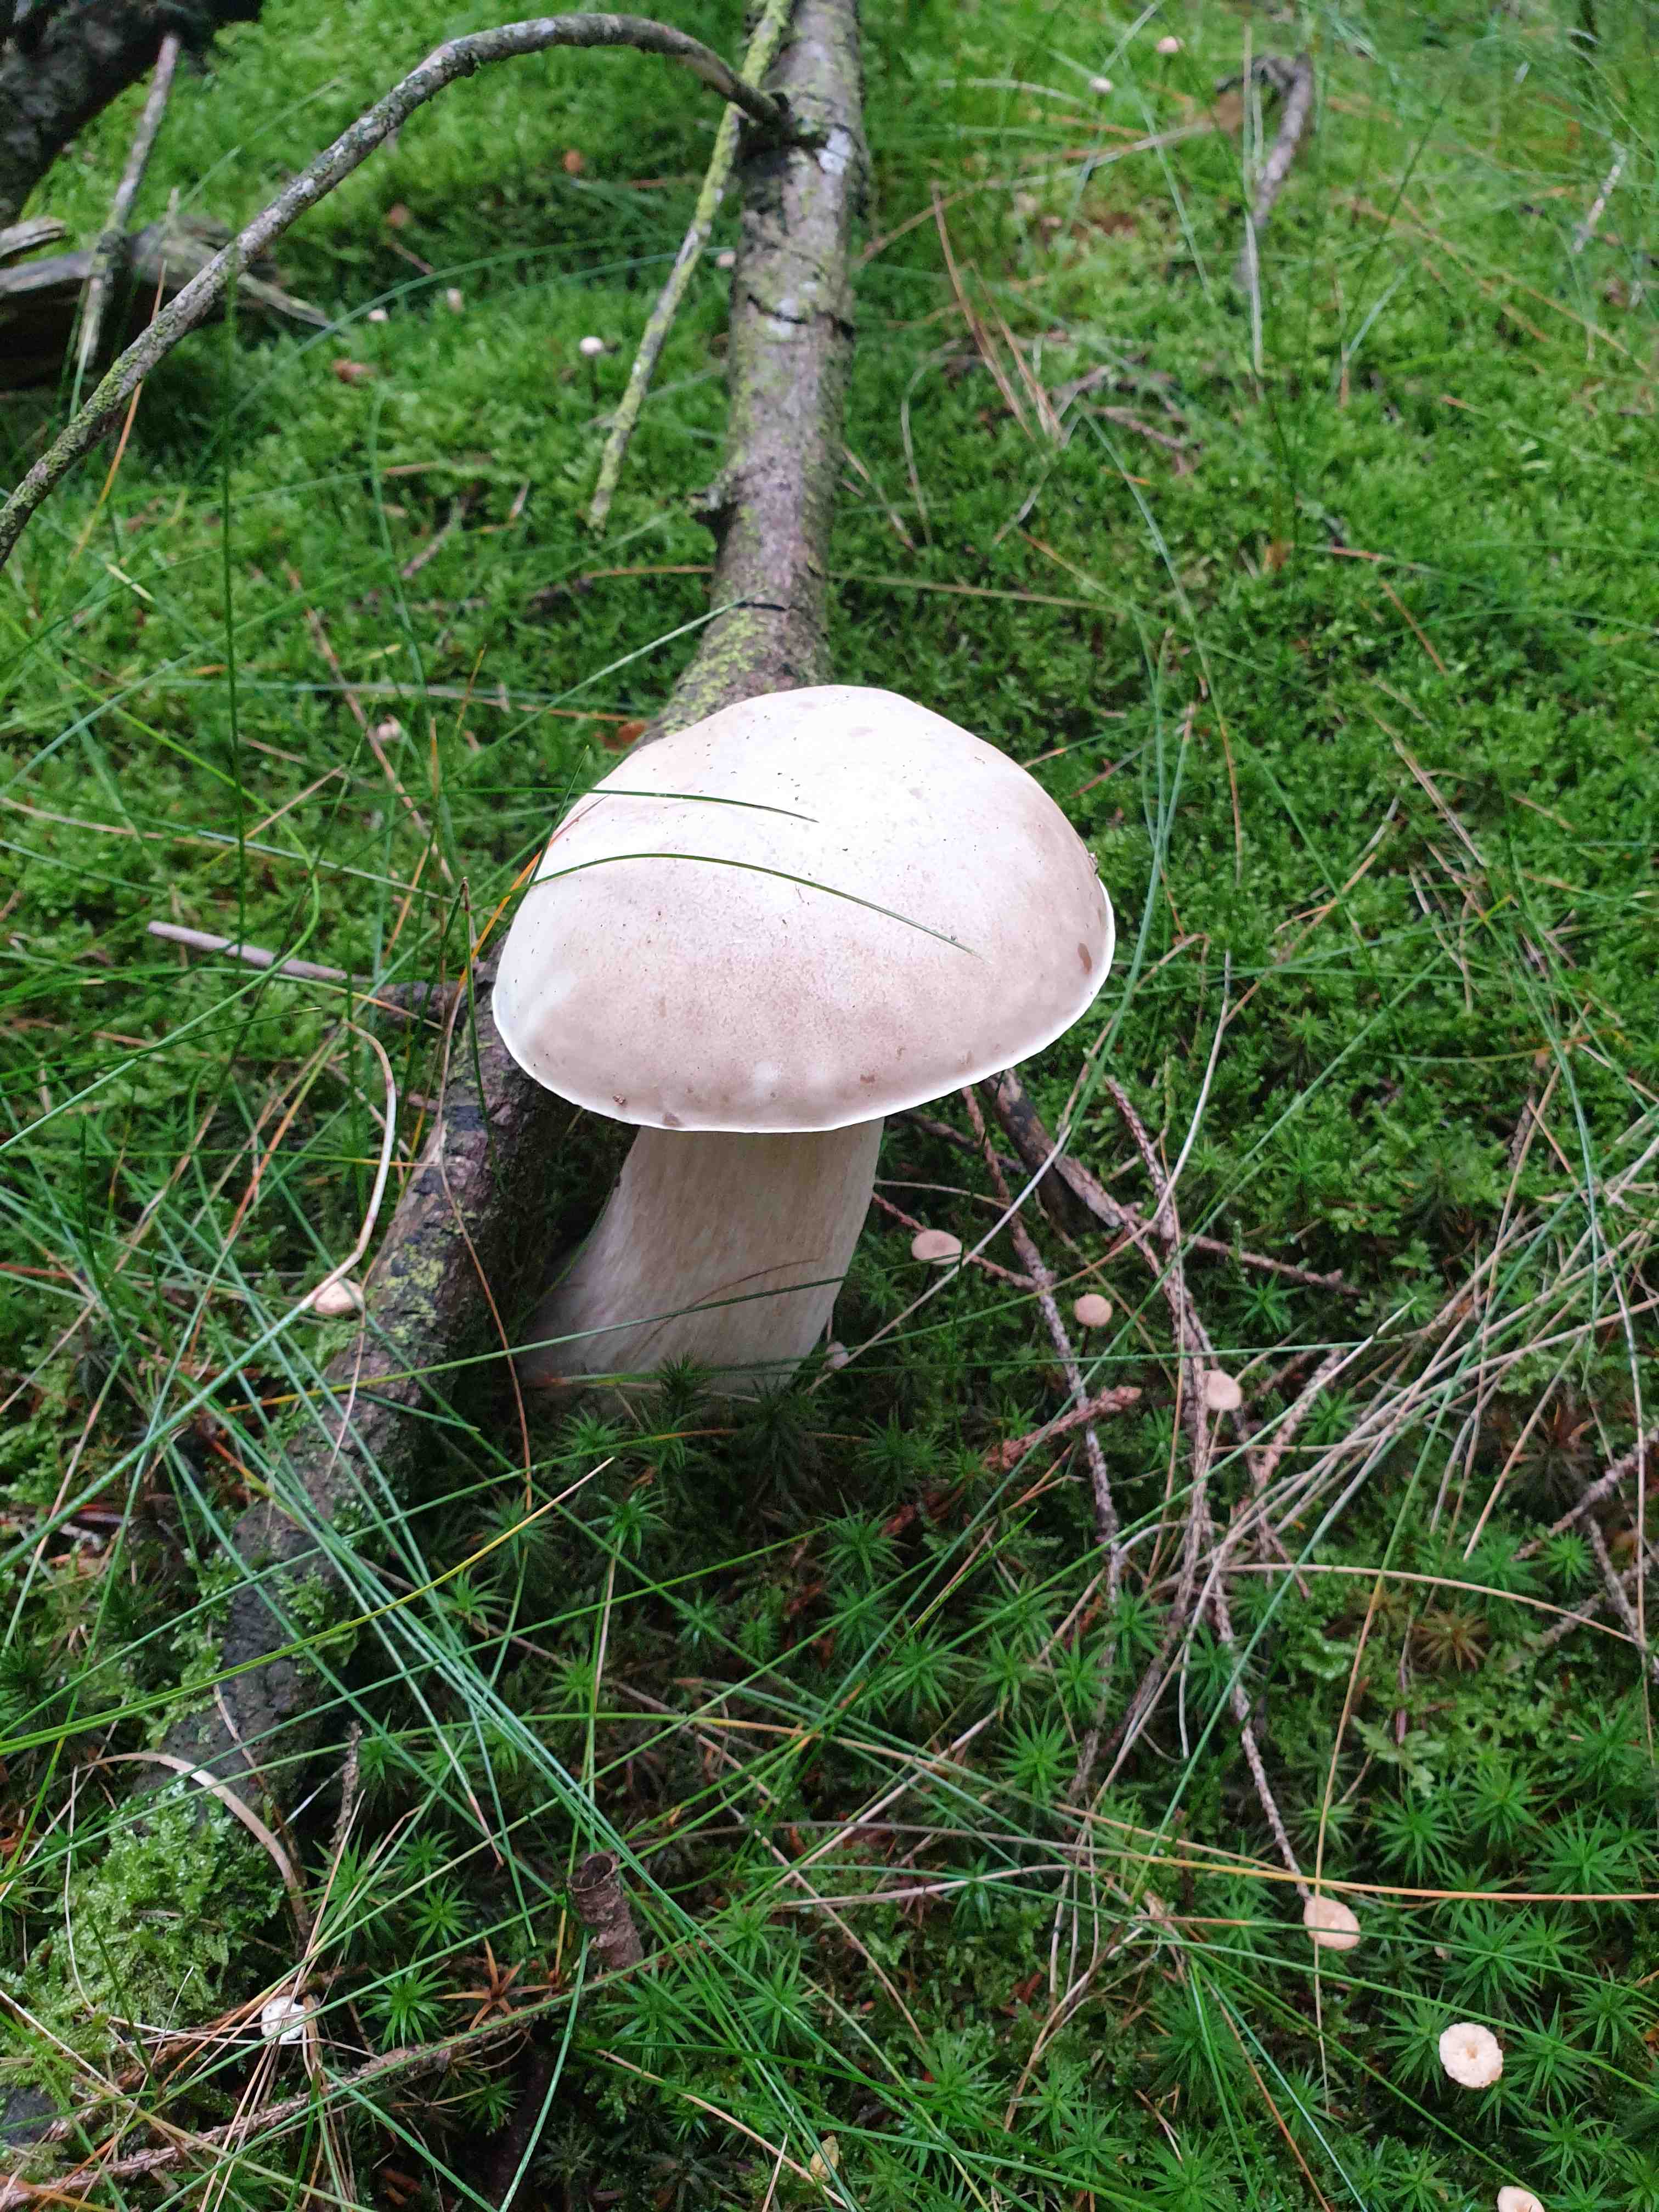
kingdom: Fungi
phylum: Basidiomycota
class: Agaricomycetes
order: Boletales
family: Boletaceae
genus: Boletus
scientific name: Boletus edulis
